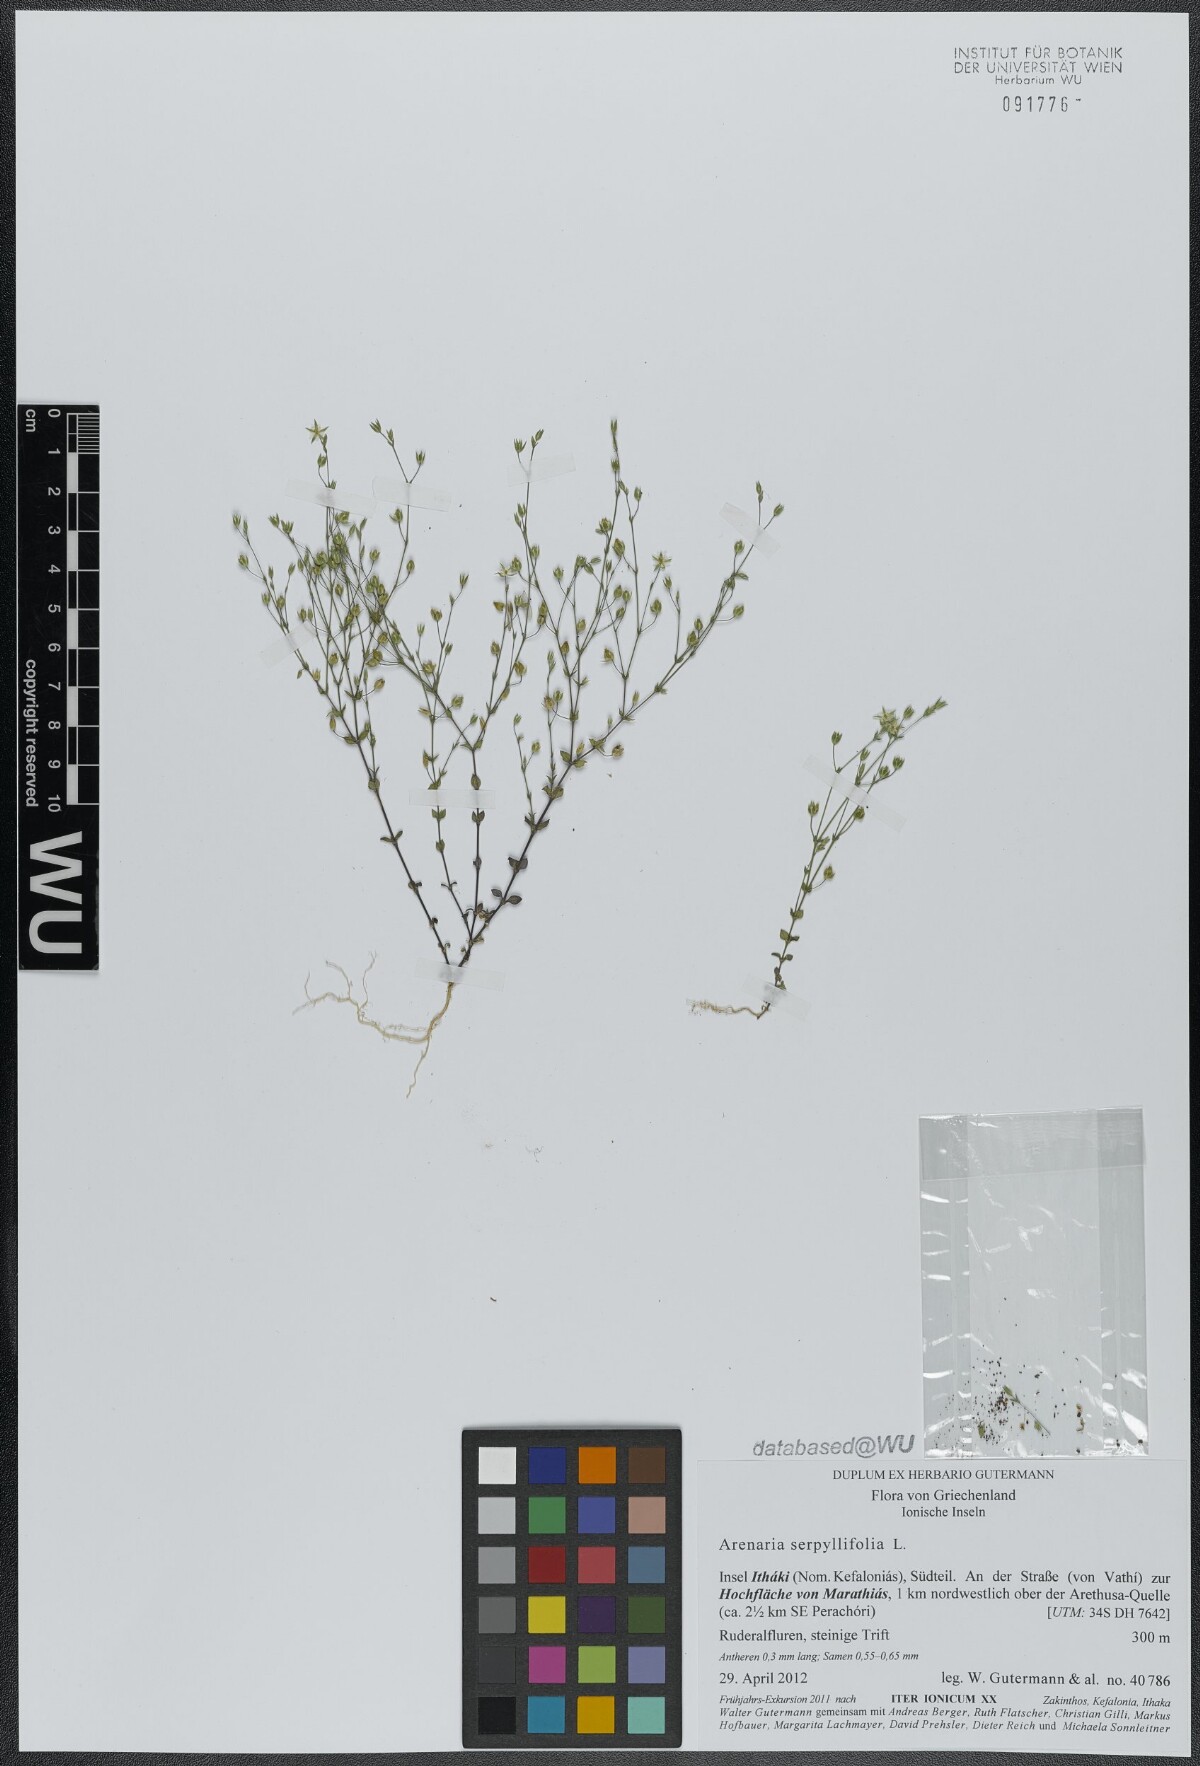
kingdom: Plantae
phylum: Tracheophyta
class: Magnoliopsida
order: Caryophyllales
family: Caryophyllaceae
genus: Arenaria
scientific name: Arenaria serpyllifolia
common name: Thyme-leaved sandwort
